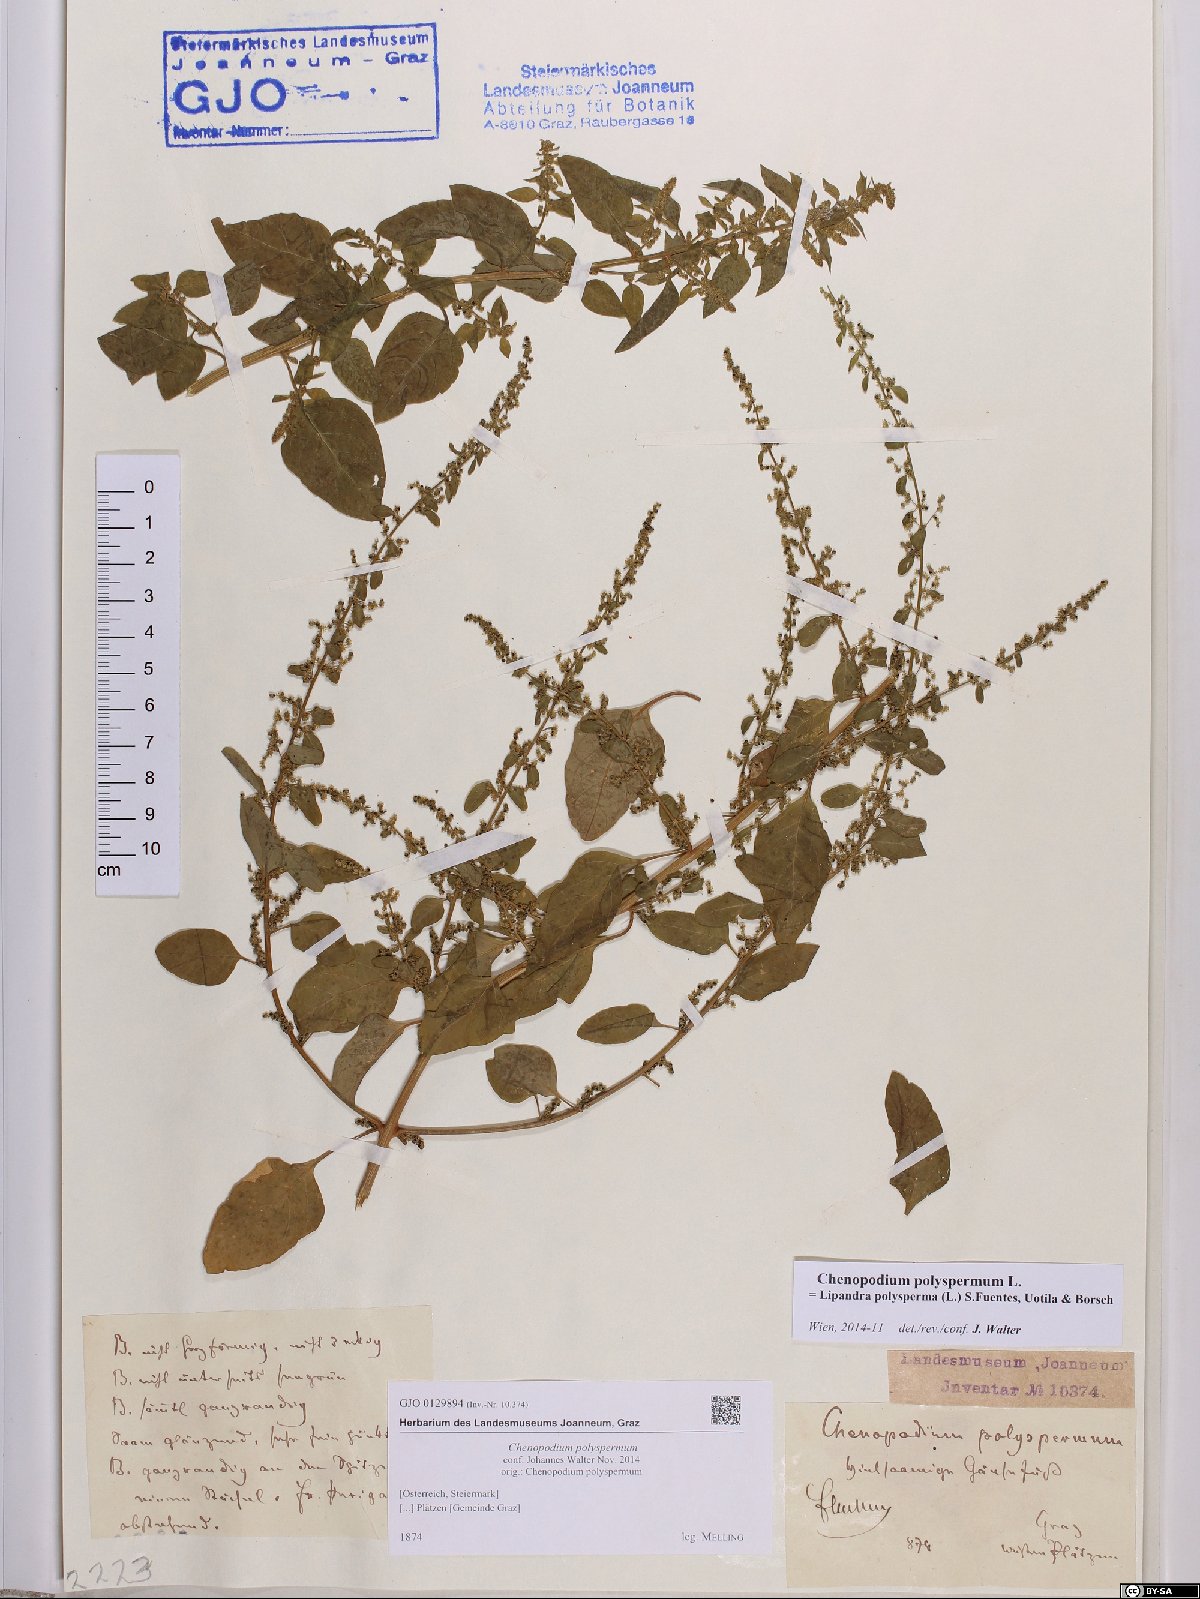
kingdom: Plantae
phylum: Tracheophyta
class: Magnoliopsida
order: Caryophyllales
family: Amaranthaceae
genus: Lipandra
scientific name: Lipandra polysperma
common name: Many-seed goosefoot
